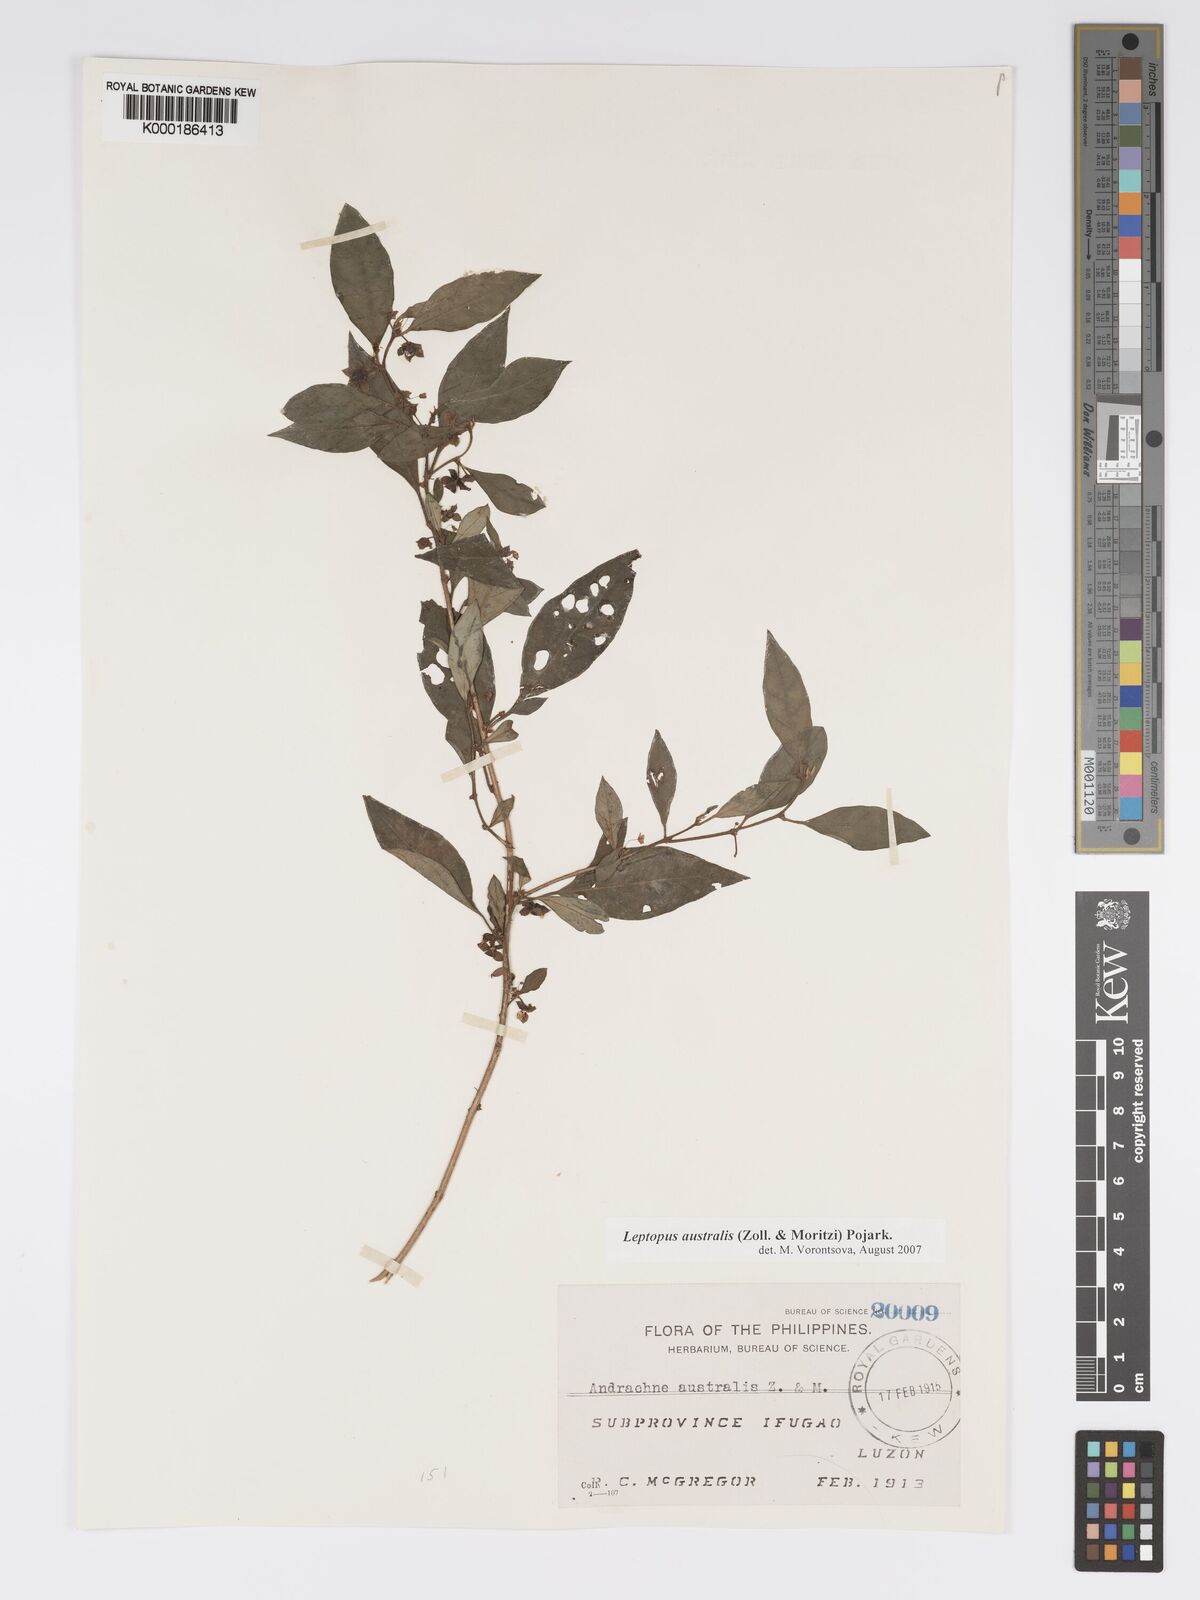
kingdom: Plantae
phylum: Tracheophyta
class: Magnoliopsida
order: Malpighiales
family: Phyllanthaceae
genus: Leptopus
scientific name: Leptopus australis
